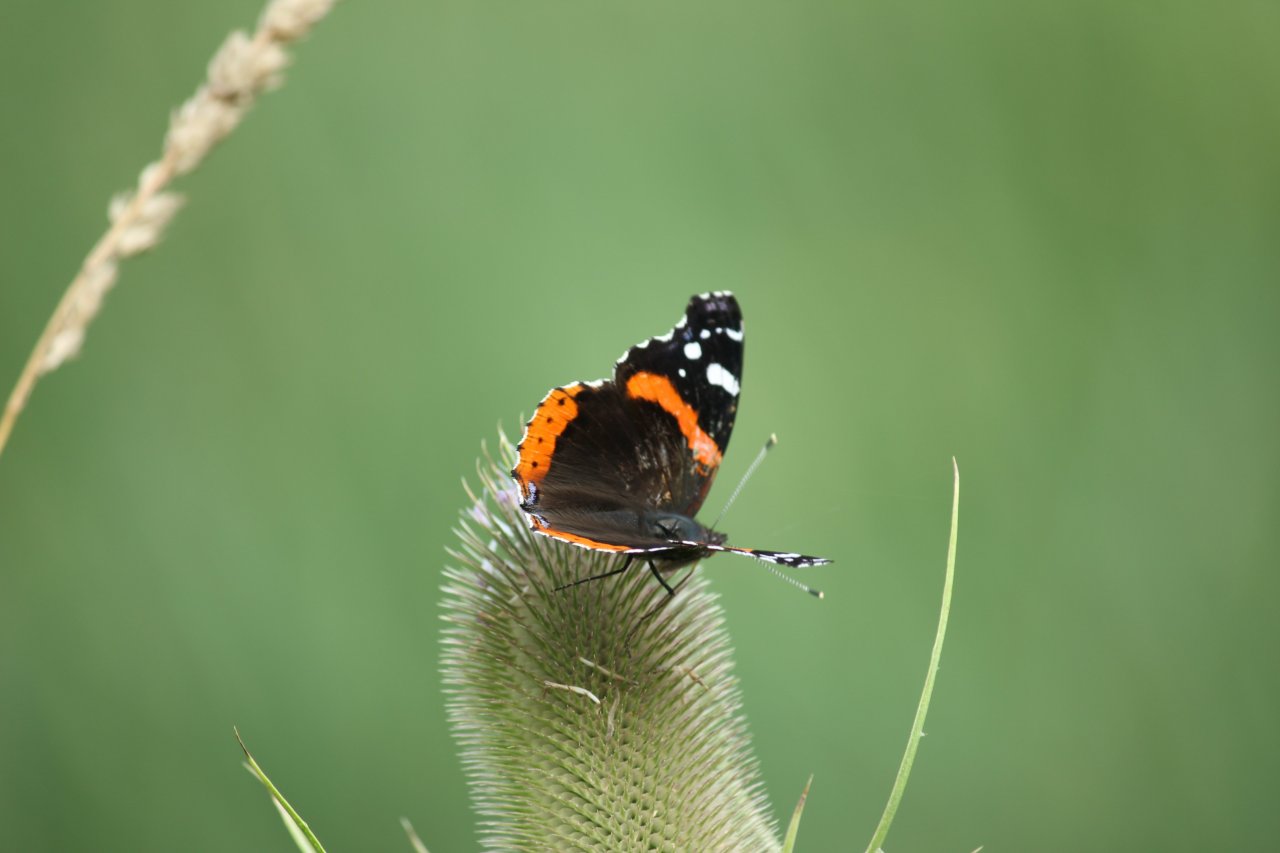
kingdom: Animalia
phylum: Arthropoda
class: Insecta
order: Lepidoptera
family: Nymphalidae
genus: Vanessa
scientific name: Vanessa atalanta
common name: Red Admiral
